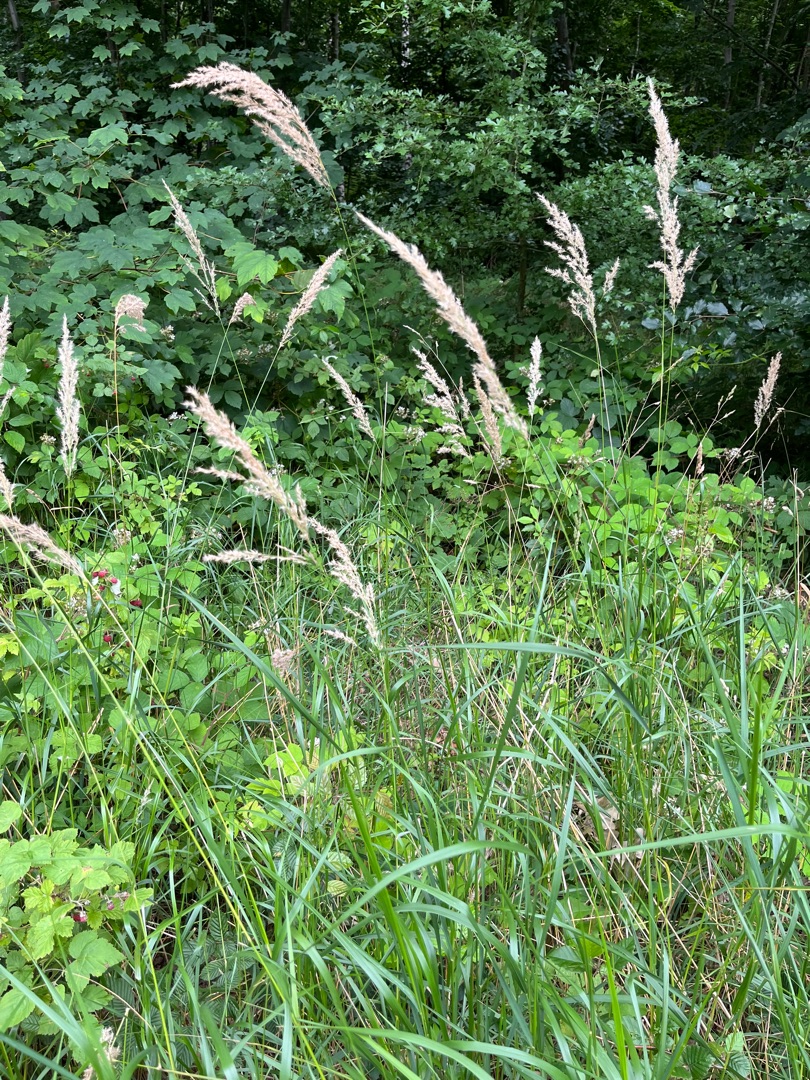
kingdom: Plantae
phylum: Tracheophyta
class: Liliopsida
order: Poales
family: Poaceae
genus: Calamagrostis
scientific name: Calamagrostis canescens
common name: Eng-rørhvene
